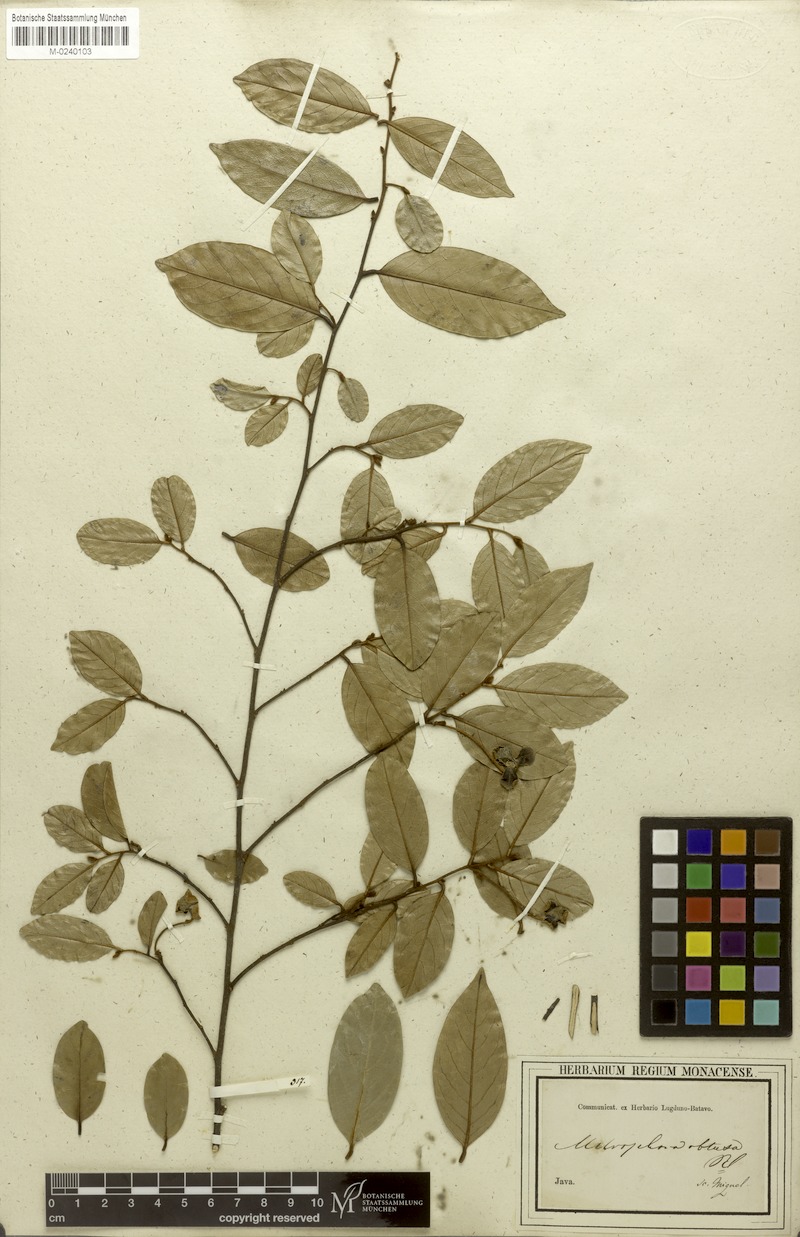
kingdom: Plantae
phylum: Tracheophyta
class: Magnoliopsida
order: Magnoliales
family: Annonaceae
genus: Mitrephora
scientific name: Mitrephora obtusa
